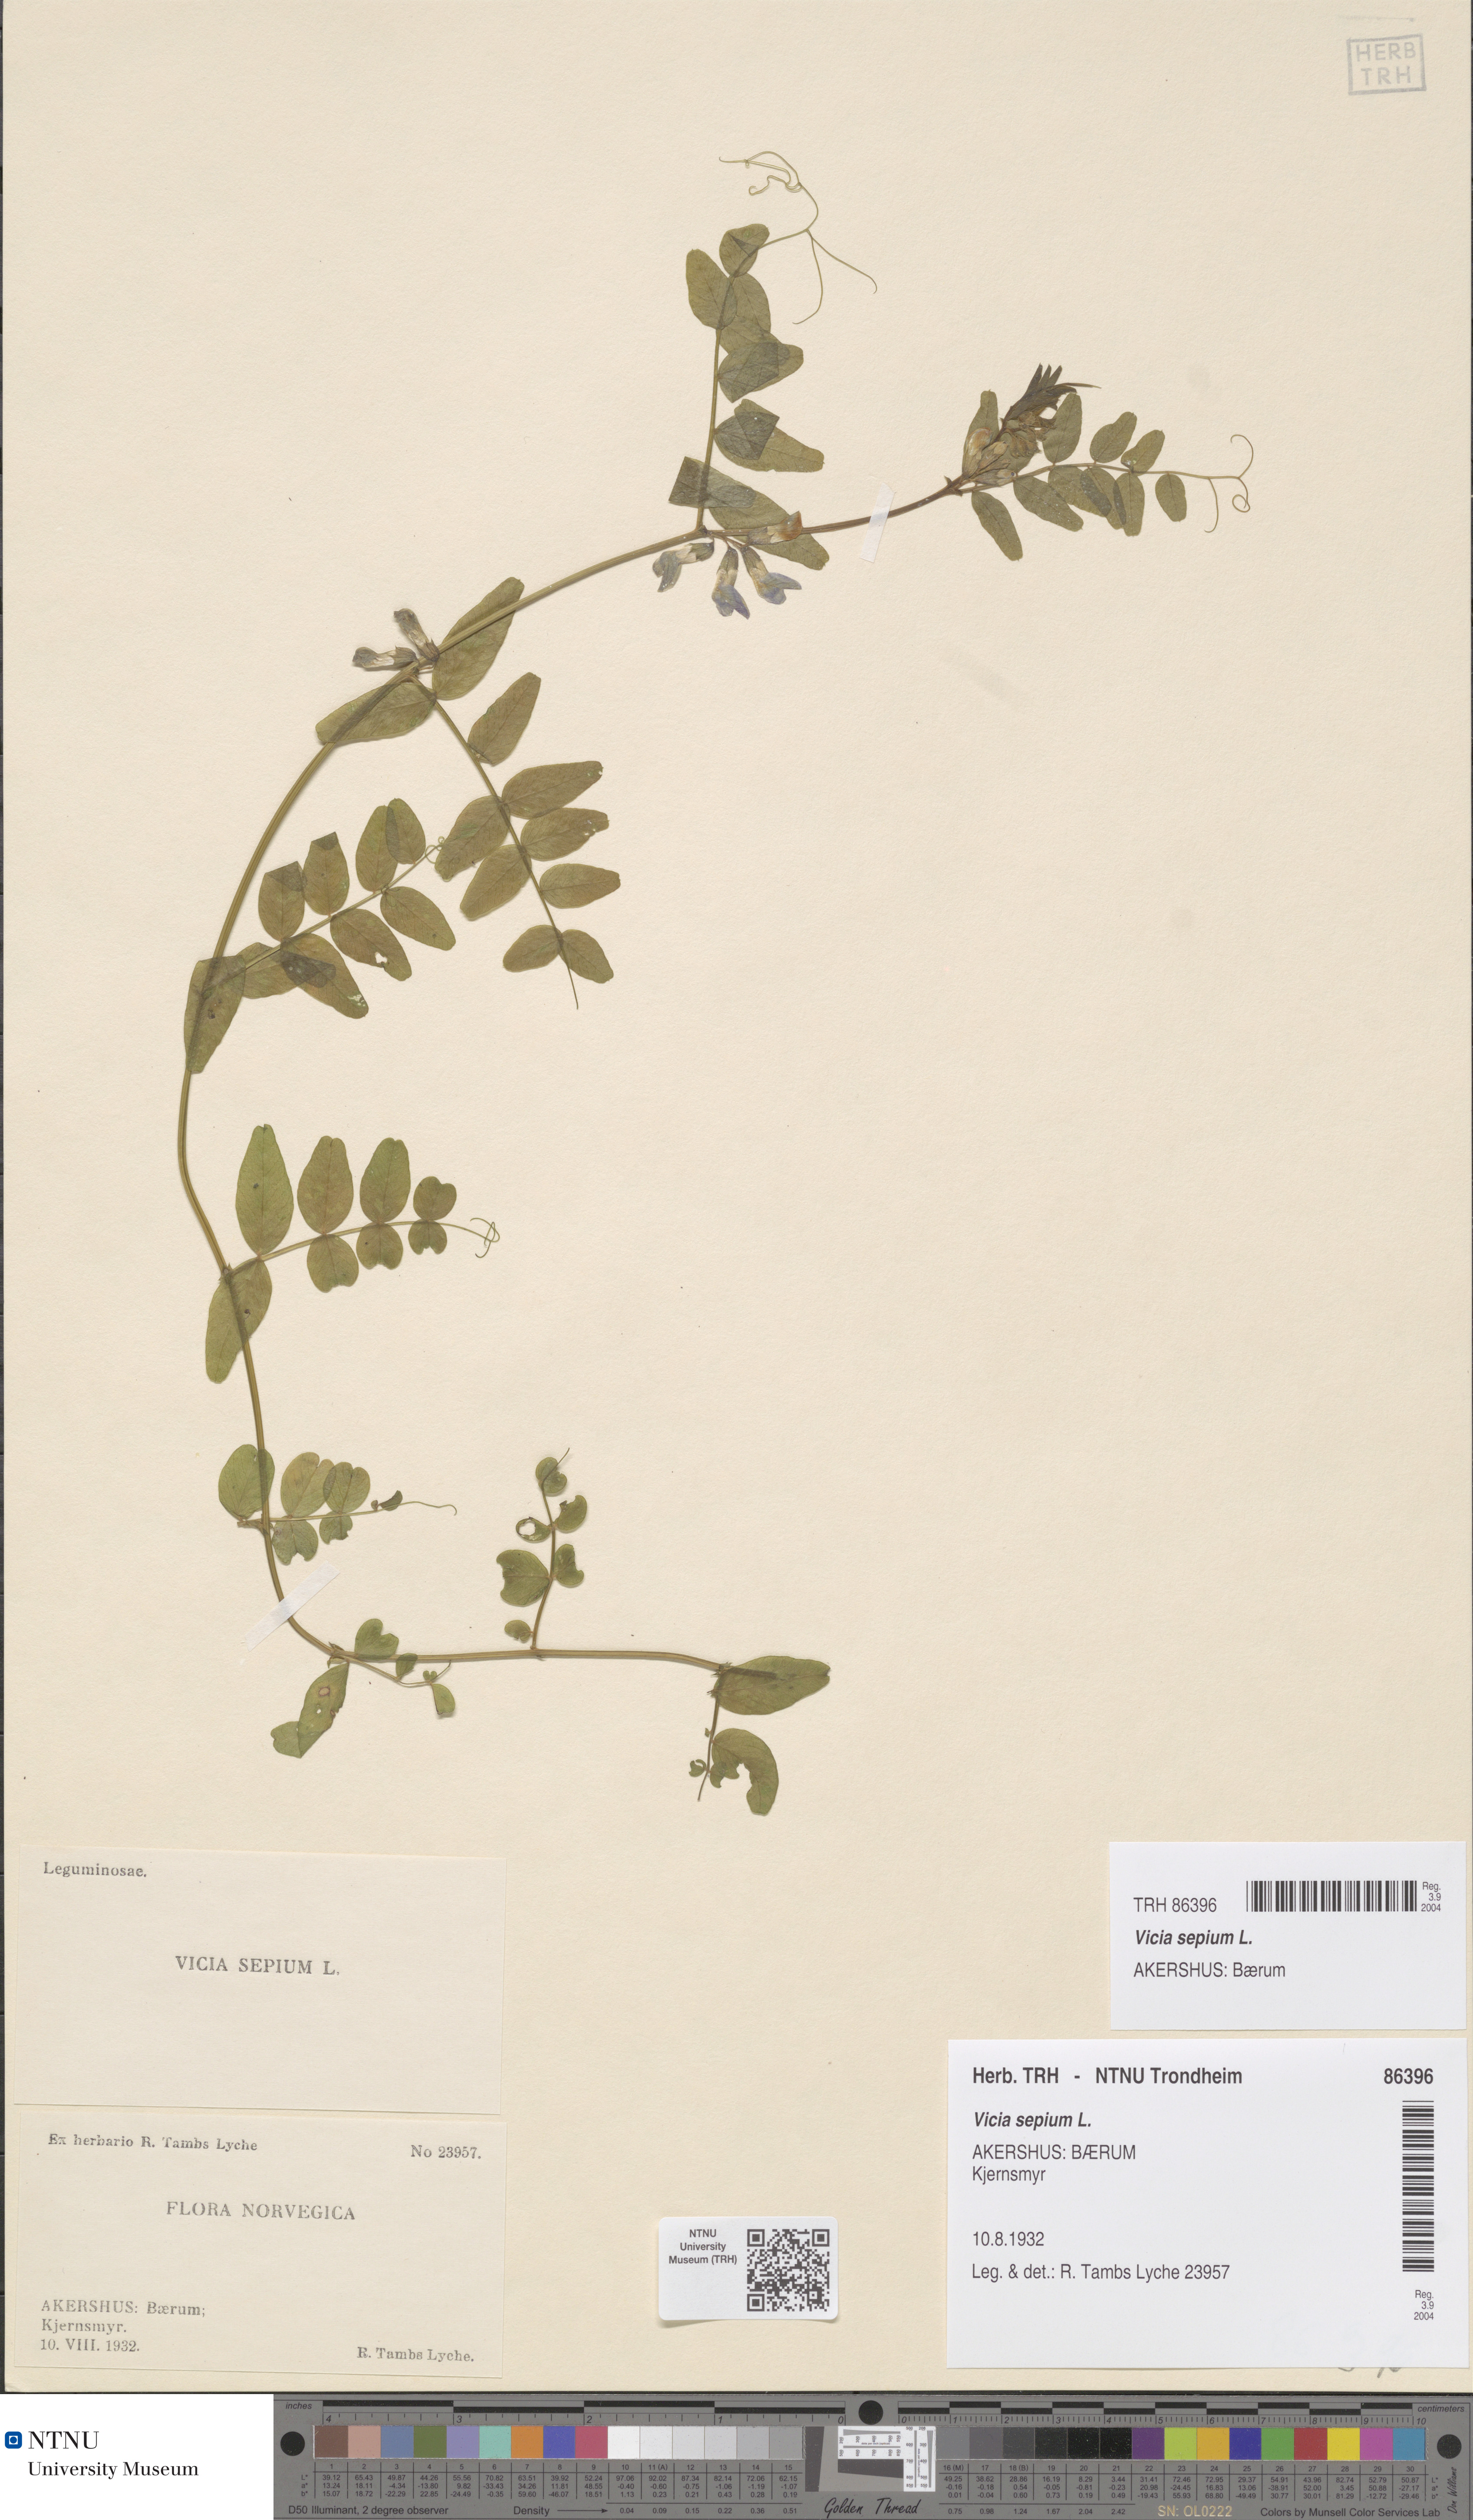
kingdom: Plantae
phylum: Tracheophyta
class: Magnoliopsida
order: Fabales
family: Fabaceae
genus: Vicia
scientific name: Vicia sepium
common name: Bush vetch
